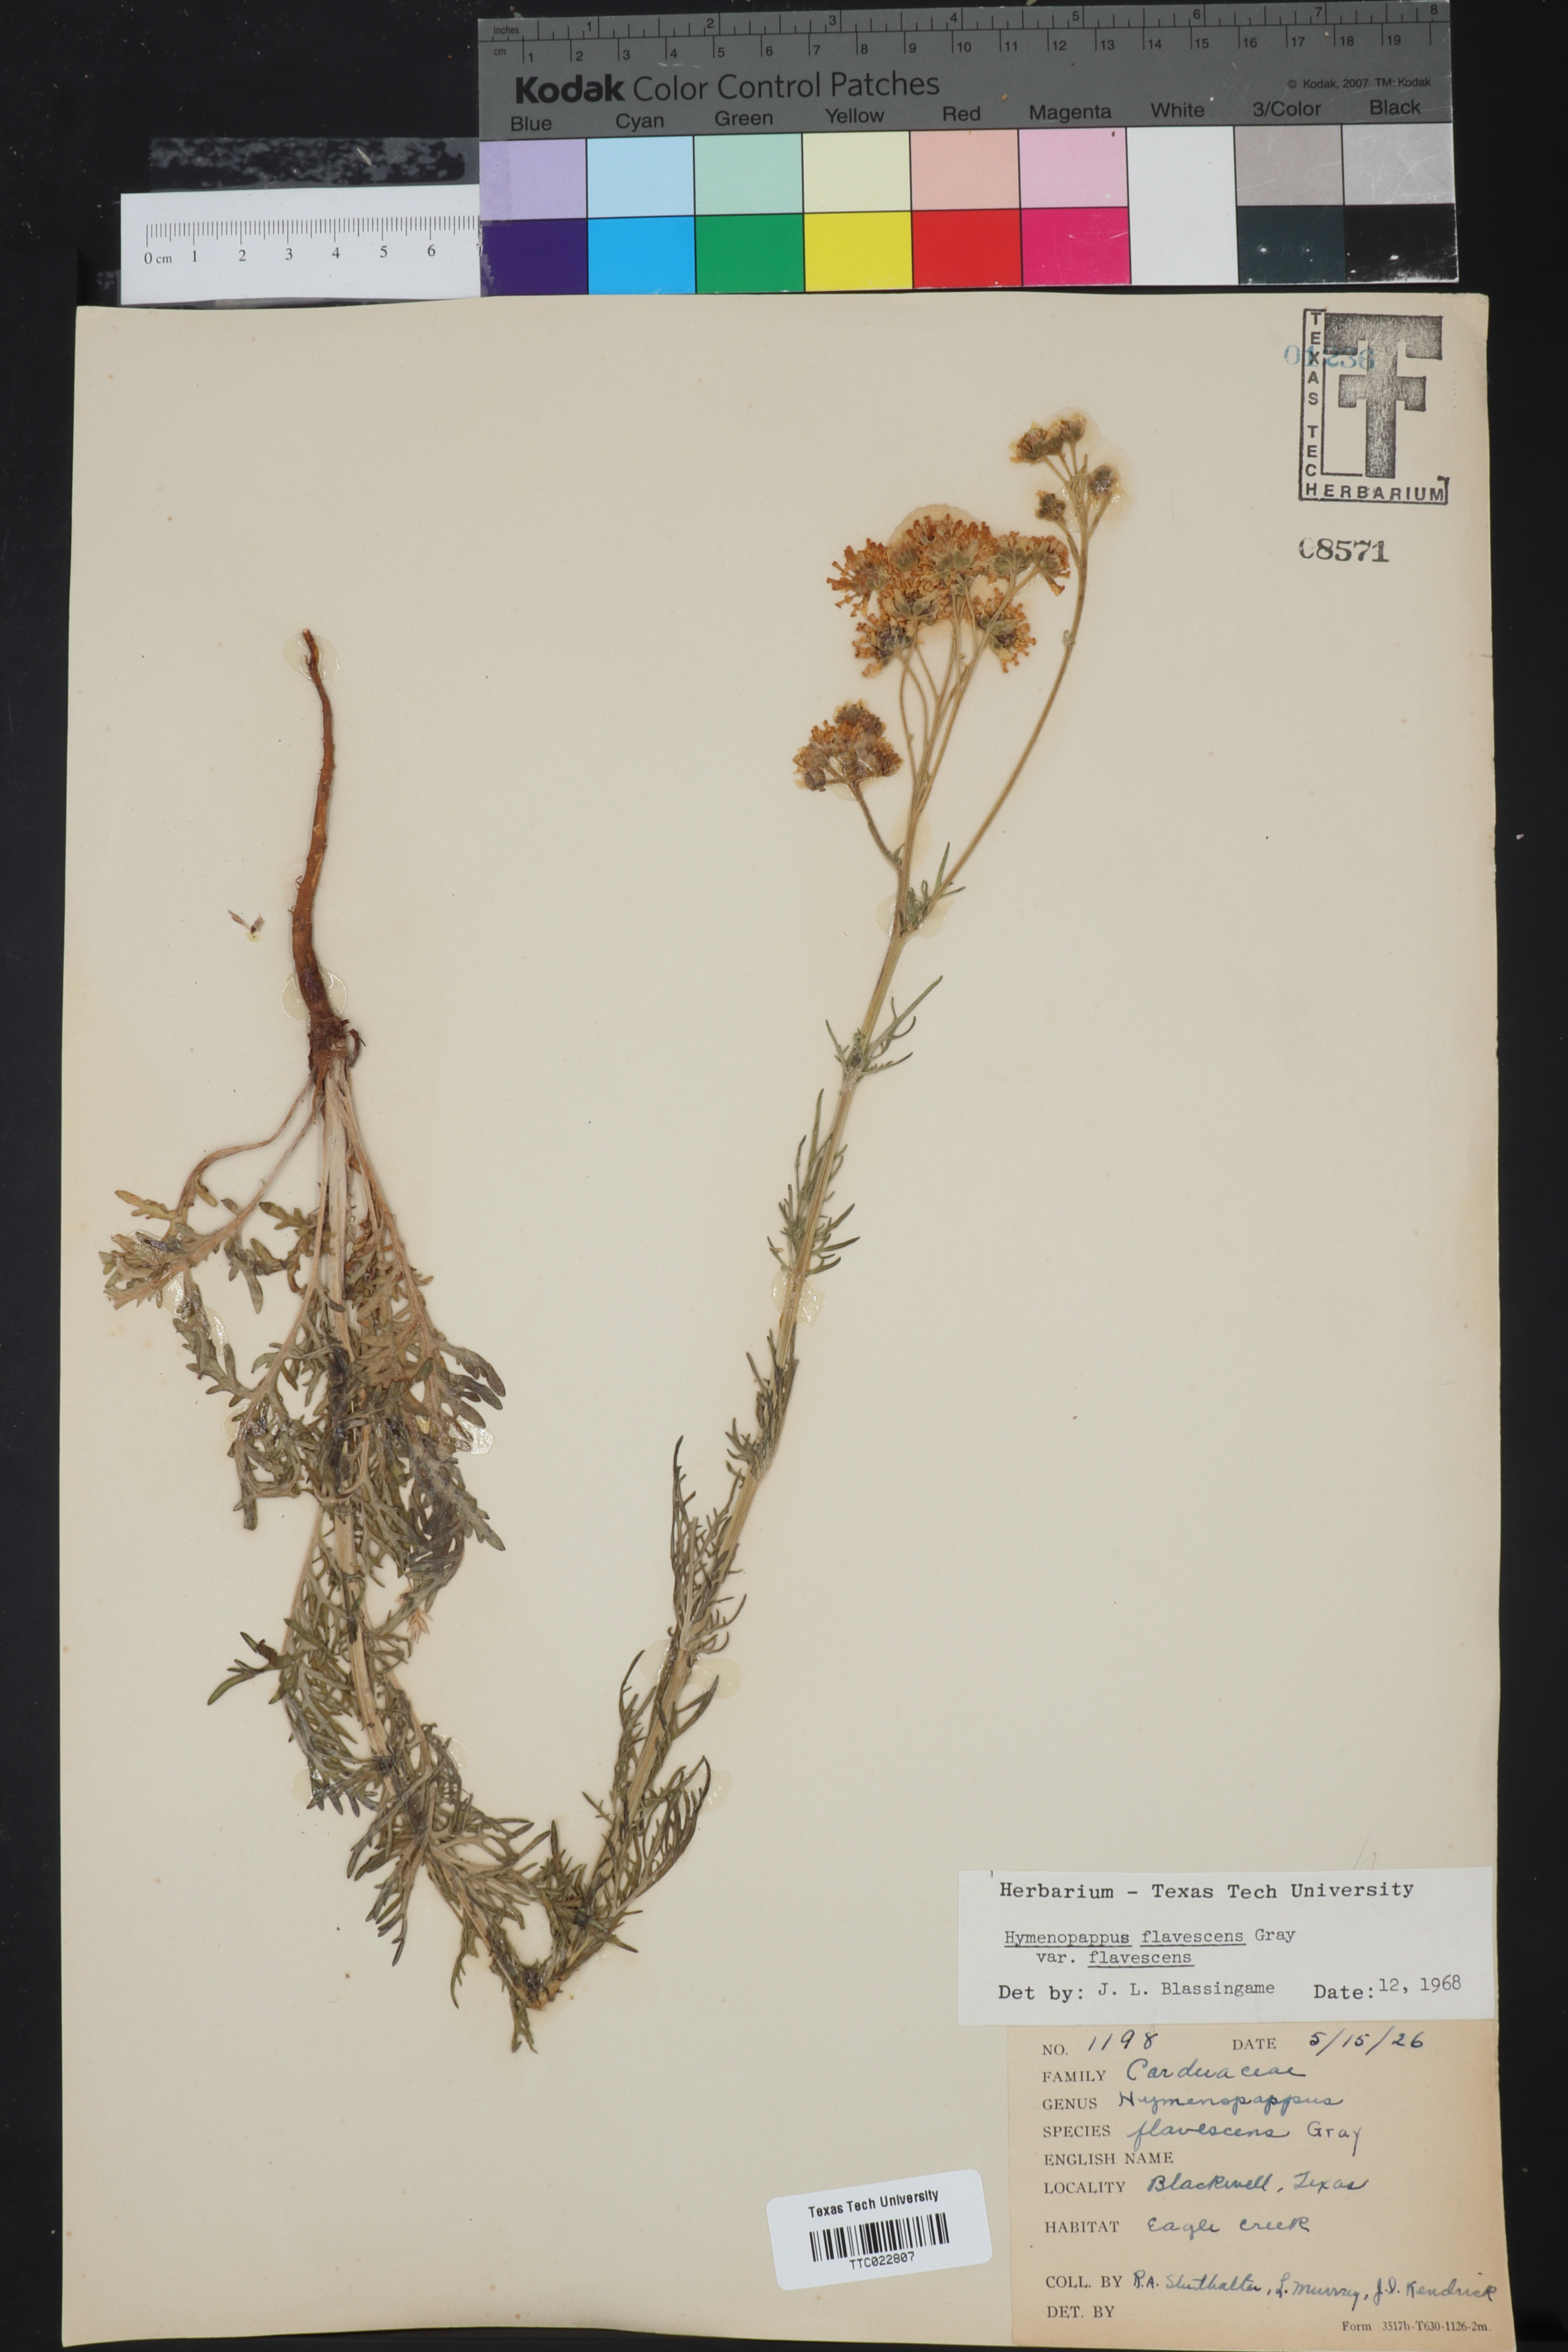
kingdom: Plantae
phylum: Tracheophyta
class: Magnoliopsida
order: Asterales
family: Asteraceae
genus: Hymenopappus
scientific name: Hymenopappus flavescens
